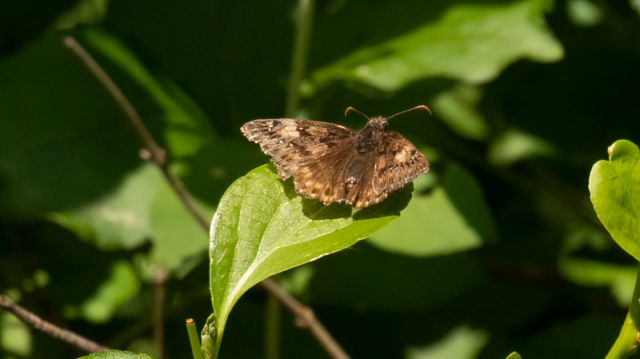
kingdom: Animalia
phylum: Arthropoda
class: Insecta
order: Lepidoptera
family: Hesperiidae
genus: Gesta
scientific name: Gesta
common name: Juvenal's Duskywing
